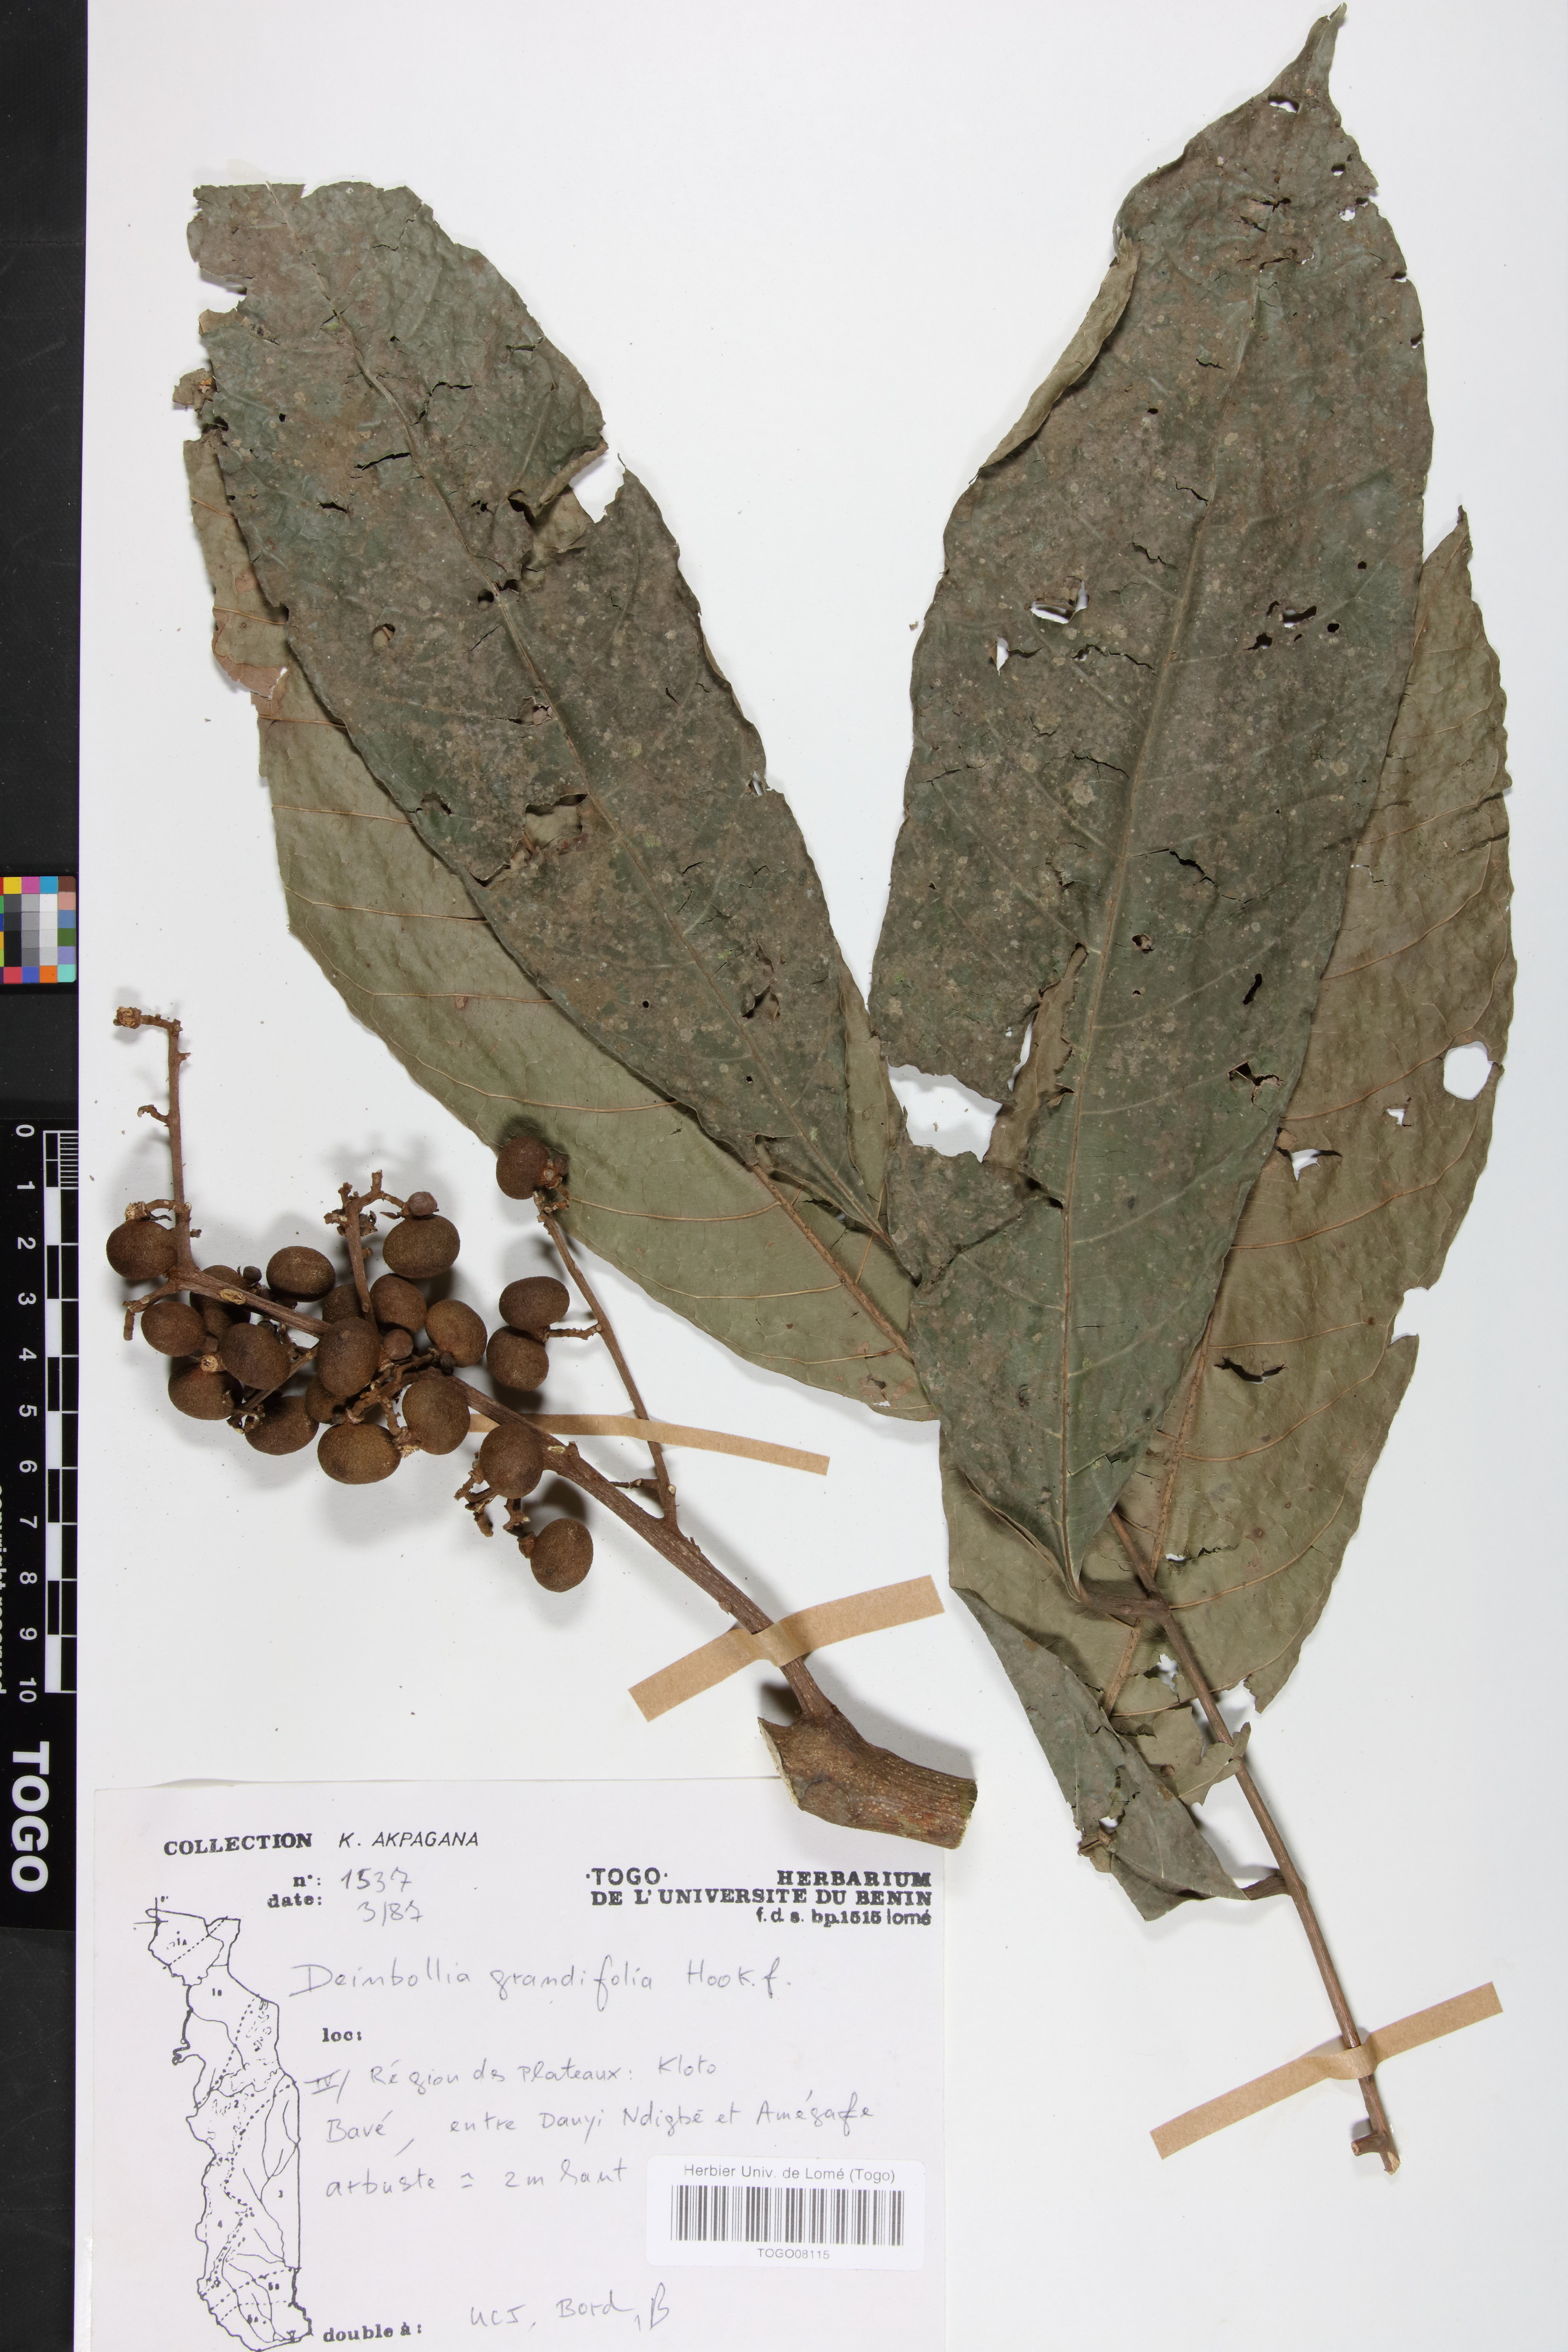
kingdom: Plantae
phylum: Tracheophyta
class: Magnoliopsida
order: Sapindales
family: Sapindaceae
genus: Deinbollia
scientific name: Deinbollia grandifolia
